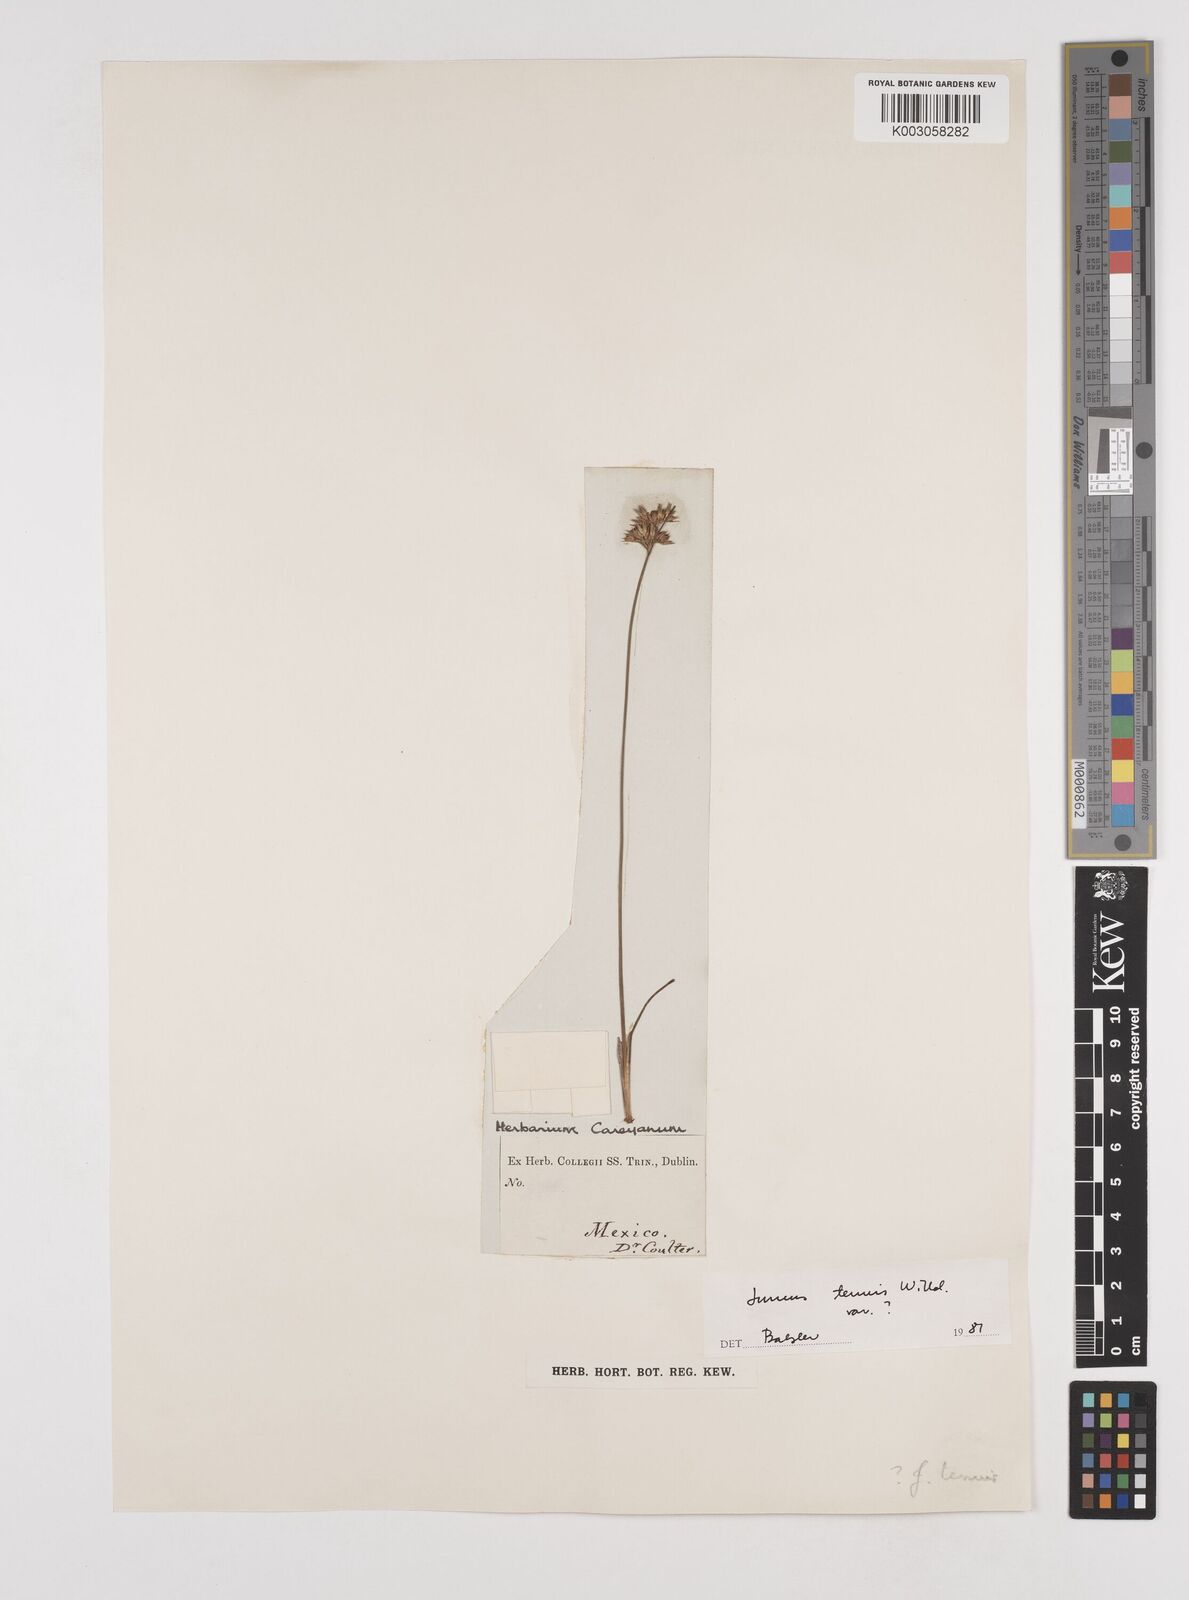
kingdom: Plantae
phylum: Tracheophyta
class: Liliopsida
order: Poales
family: Juncaceae
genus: Juncus
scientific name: Juncus tenuis
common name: Slender rush
